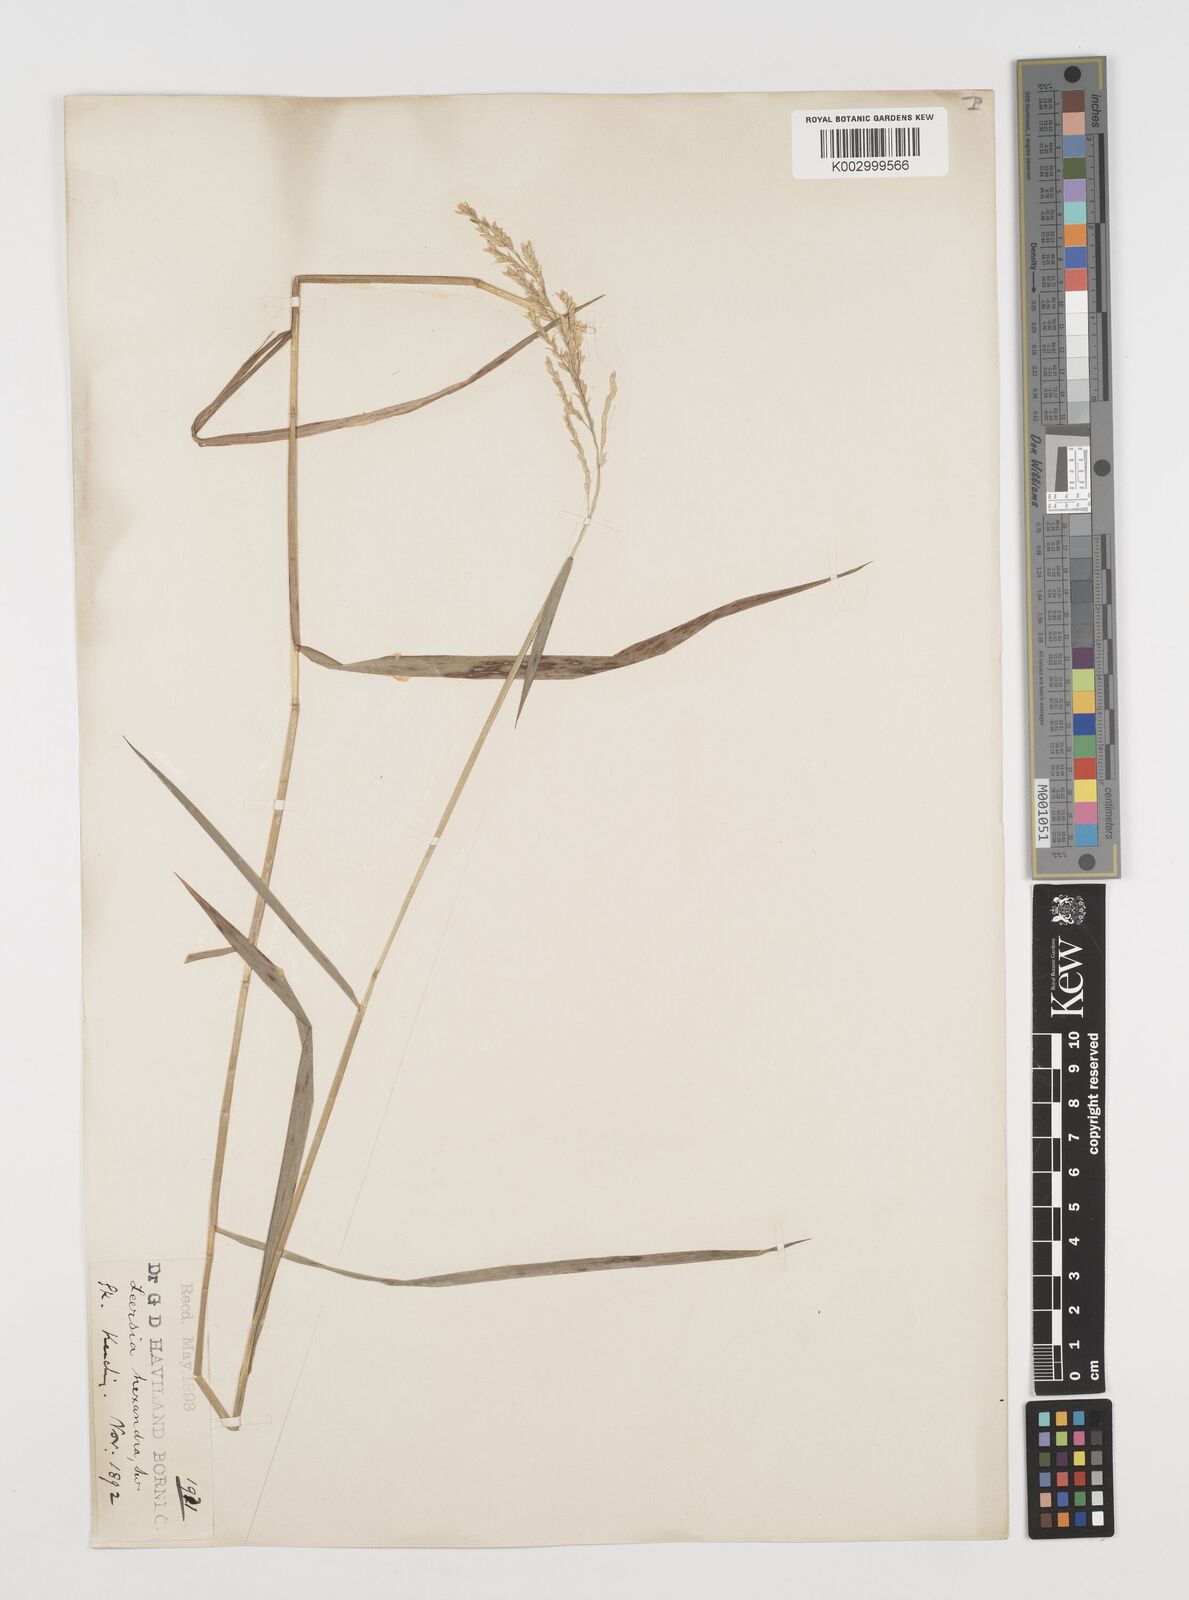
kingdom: Plantae
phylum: Tracheophyta
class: Liliopsida
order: Poales
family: Poaceae
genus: Leersia
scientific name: Leersia hexandra
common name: Southern cut grass
